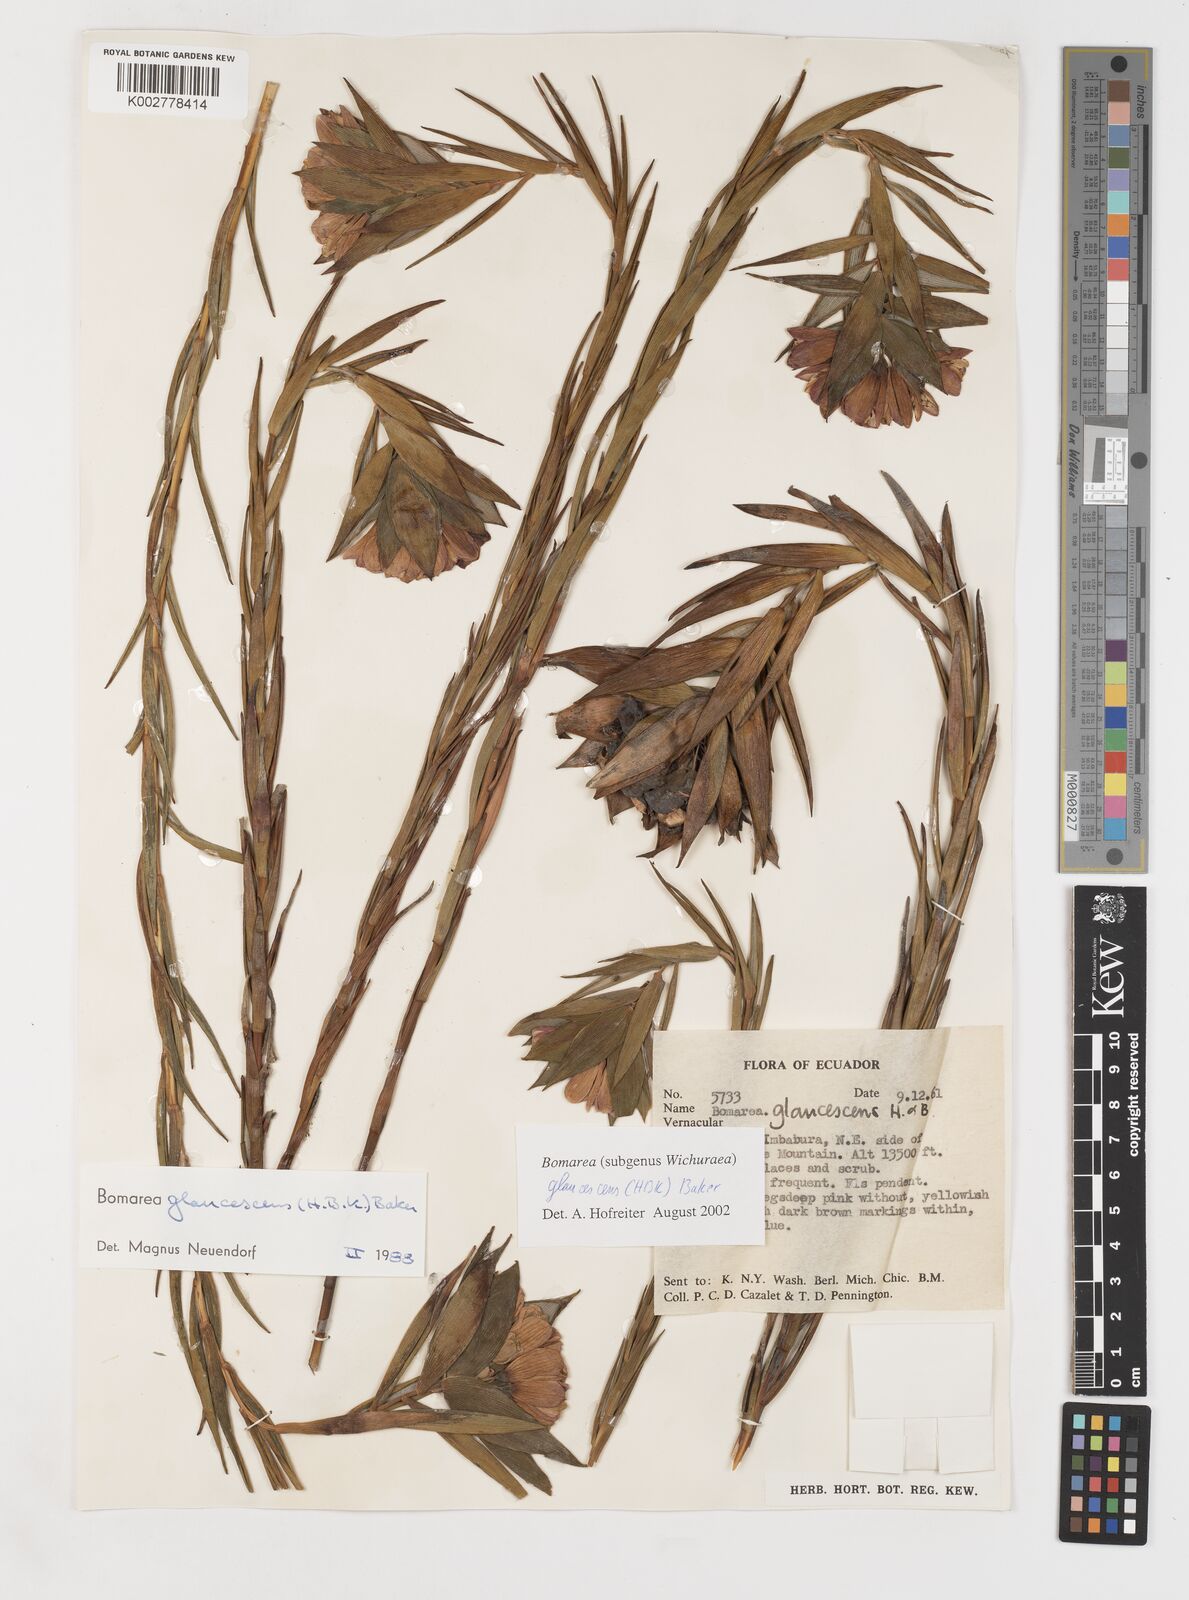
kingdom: Plantae
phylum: Tracheophyta
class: Liliopsida
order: Liliales
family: Alstroemeriaceae
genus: Bomarea
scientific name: Bomarea glaucescens
